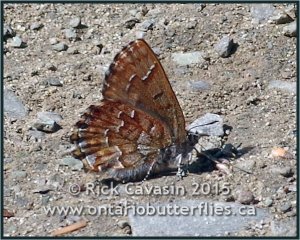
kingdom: Animalia
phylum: Arthropoda
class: Insecta
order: Lepidoptera
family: Lycaenidae
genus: Incisalia
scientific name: Incisalia niphon
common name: Eastern Pine Elfin
